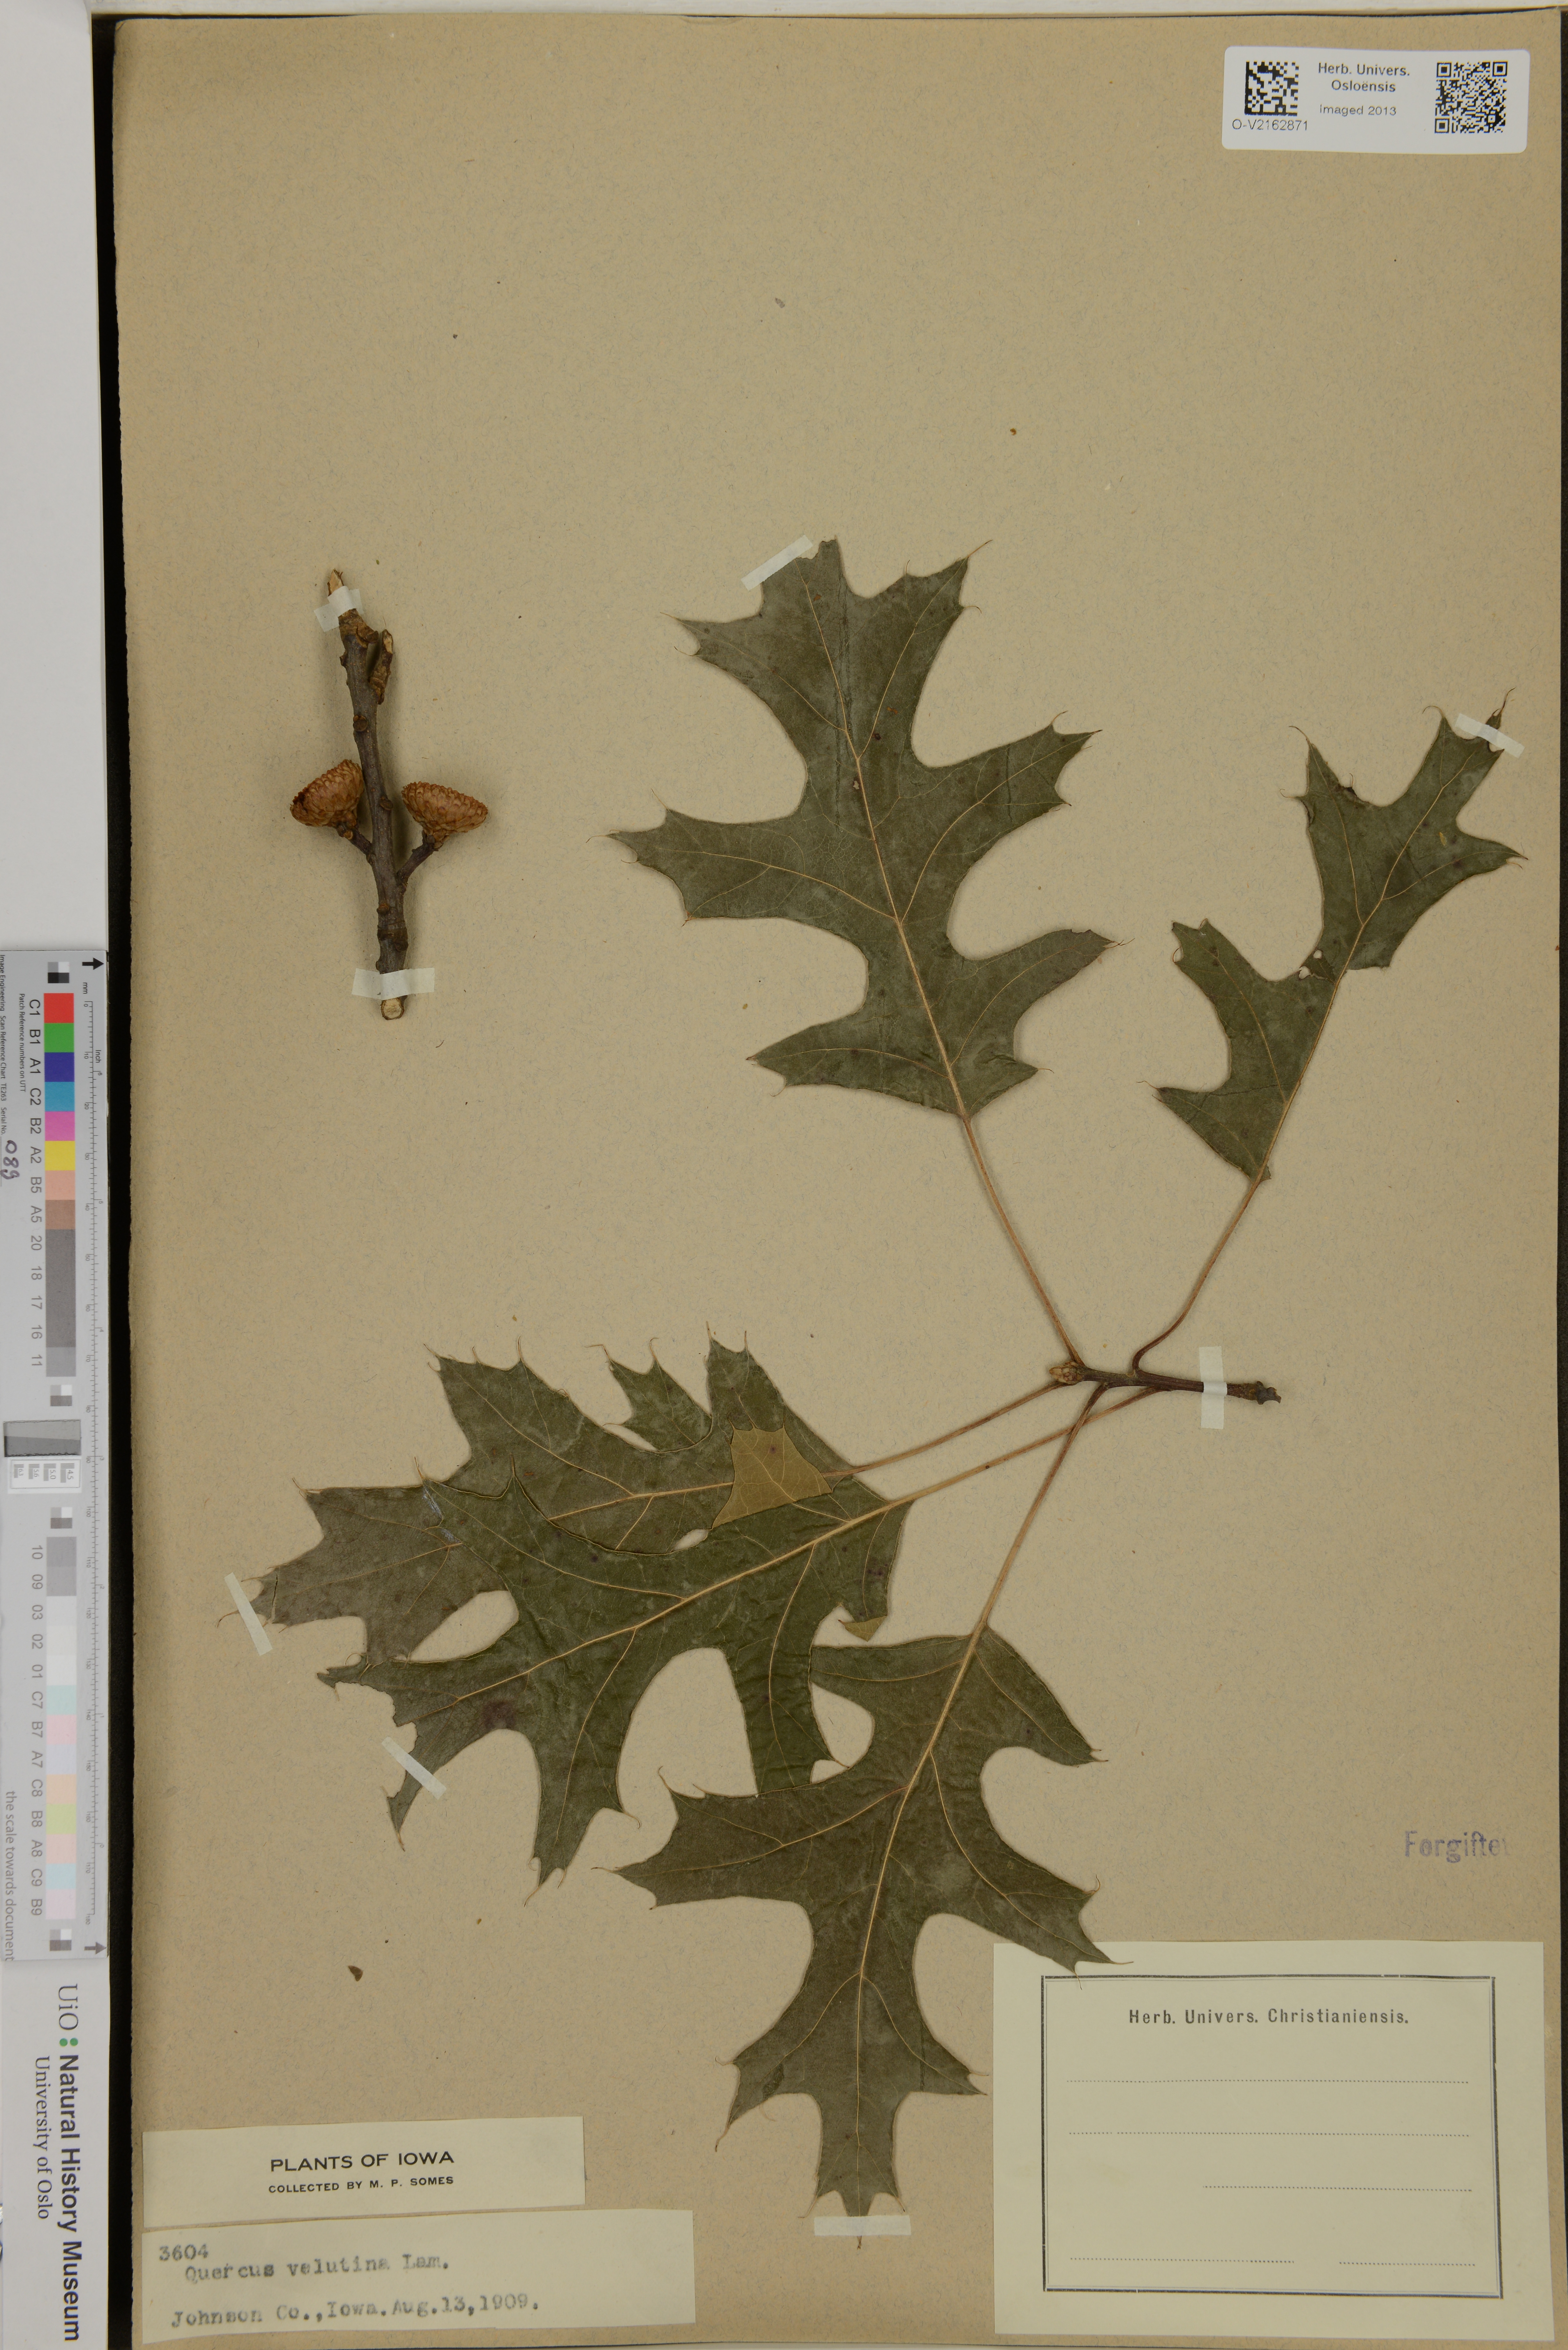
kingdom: Plantae
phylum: Tracheophyta
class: Magnoliopsida
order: Fagales
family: Fagaceae
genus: Quercus
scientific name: Quercus velutina
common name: Black oak
